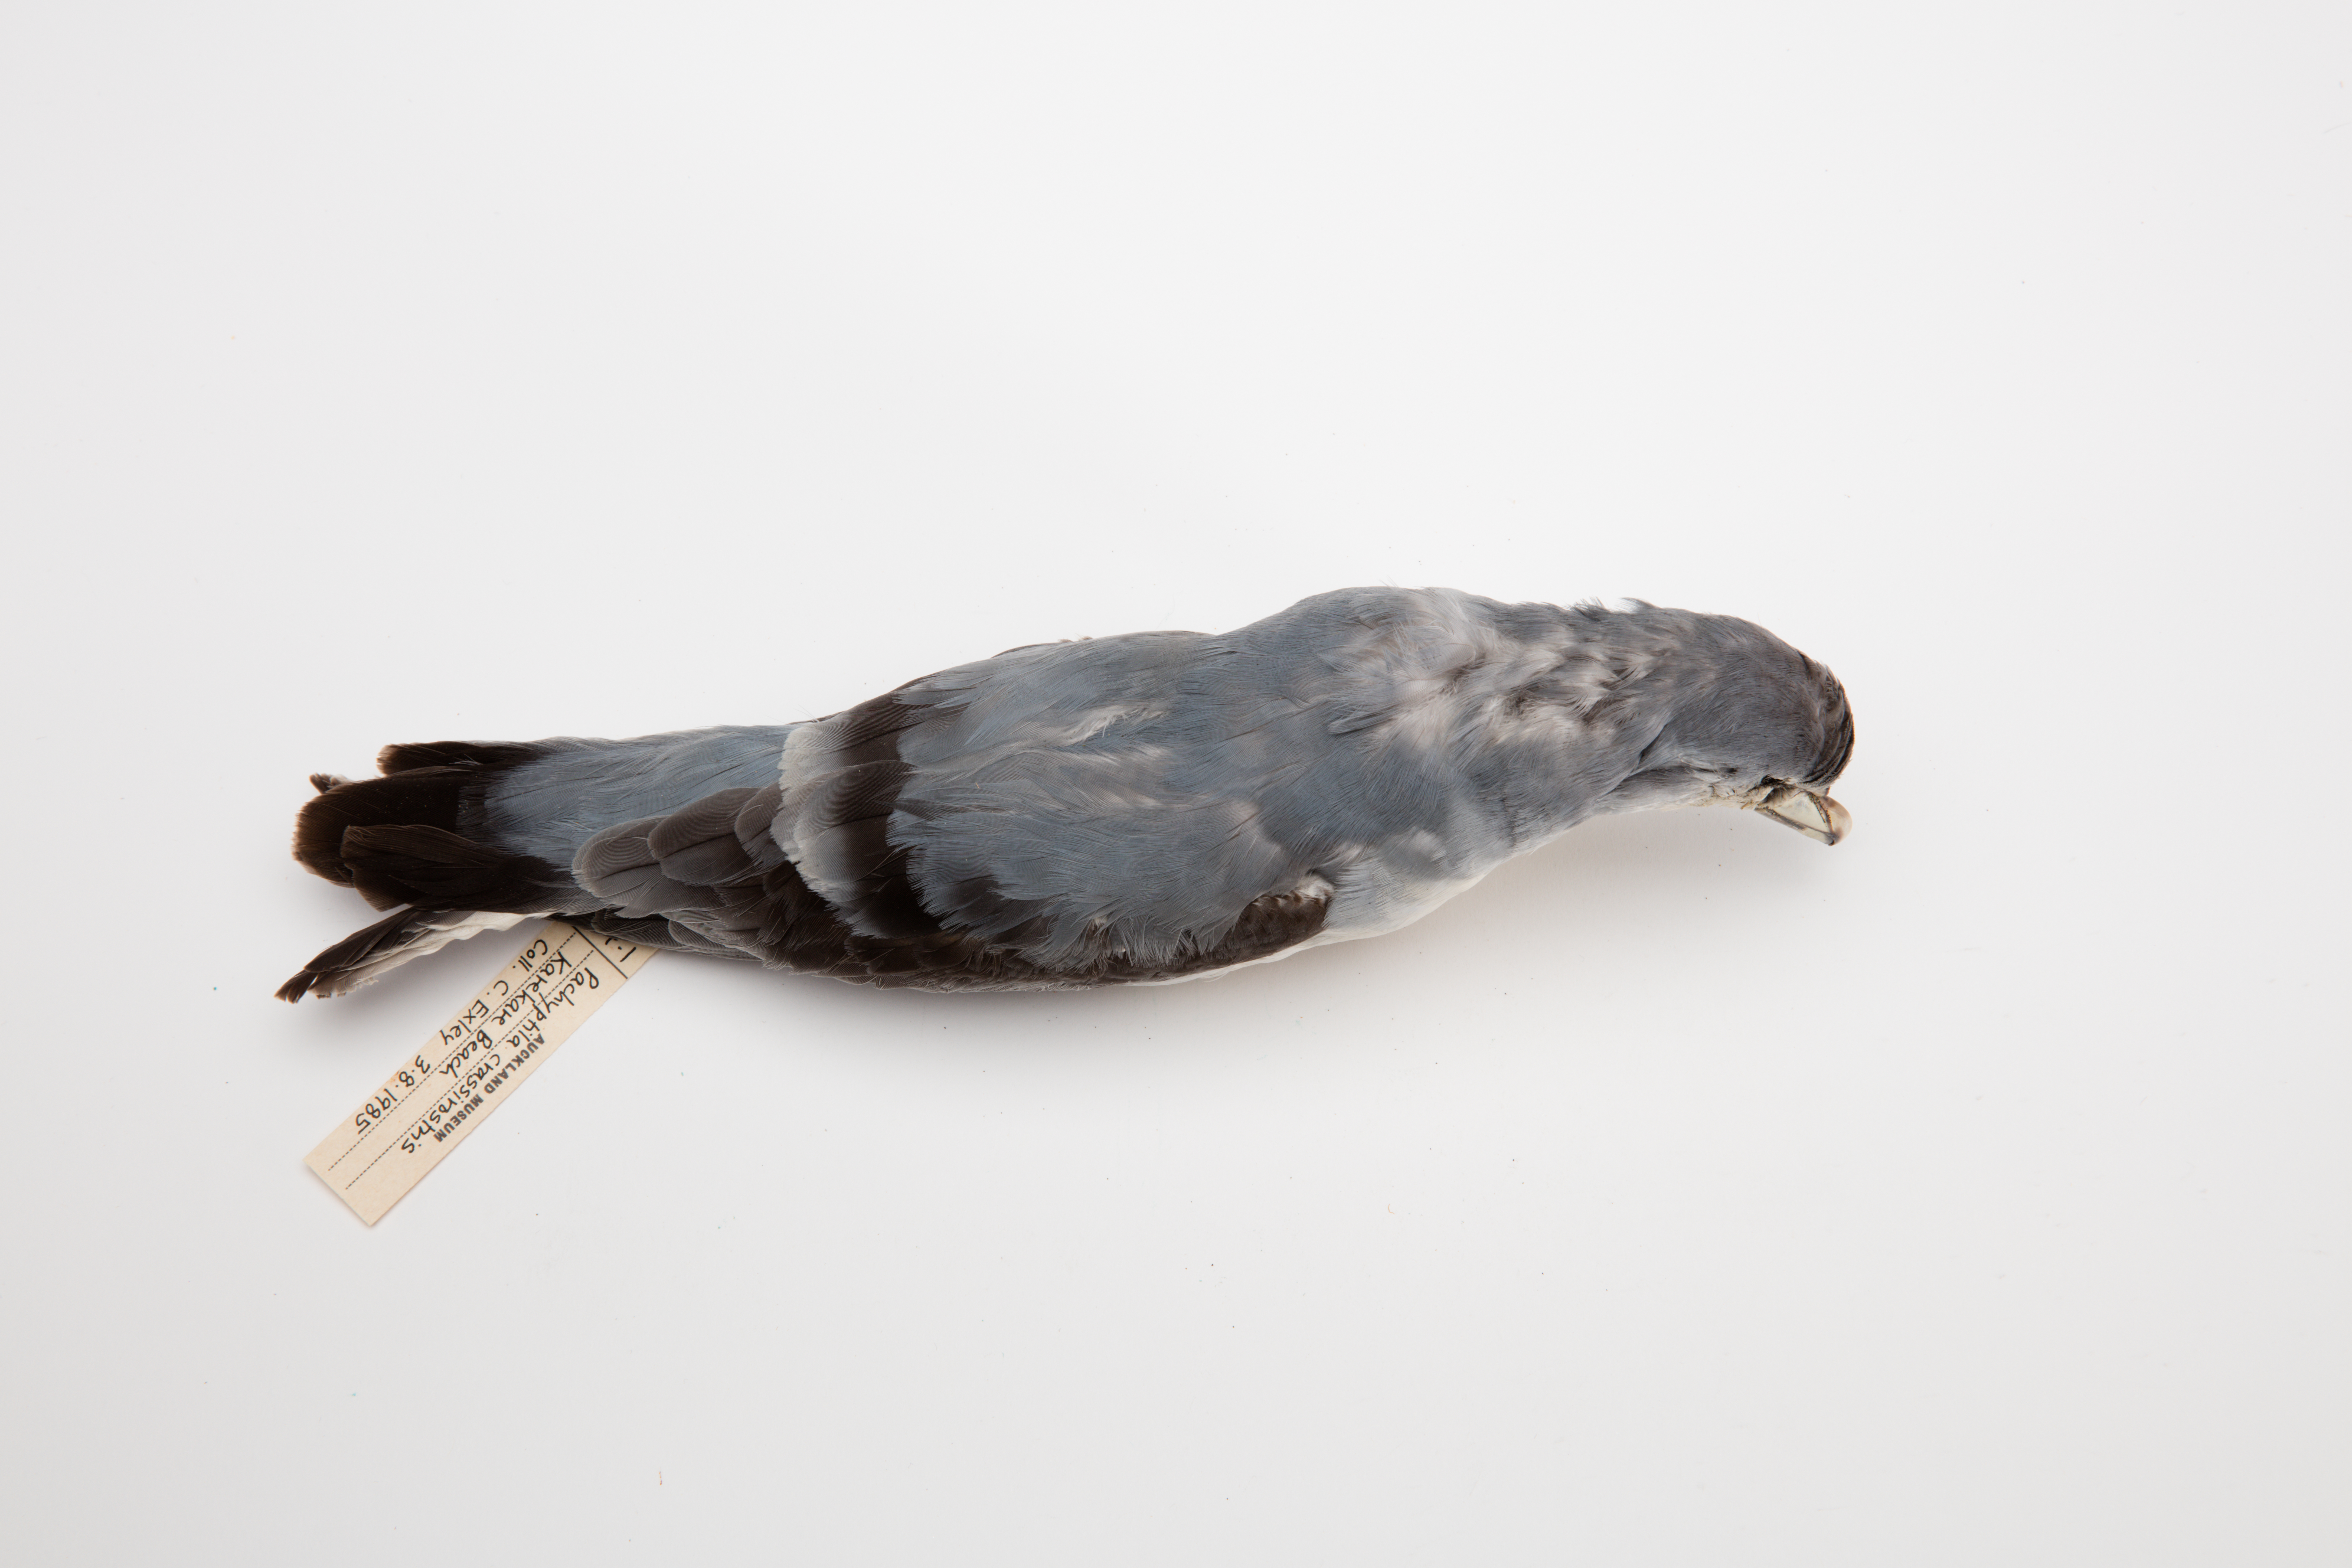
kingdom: Animalia
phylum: Chordata
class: Aves
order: Procellariiformes
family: Procellariidae
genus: Pachyptila
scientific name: Pachyptila crassirostris
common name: Fulmar prion
